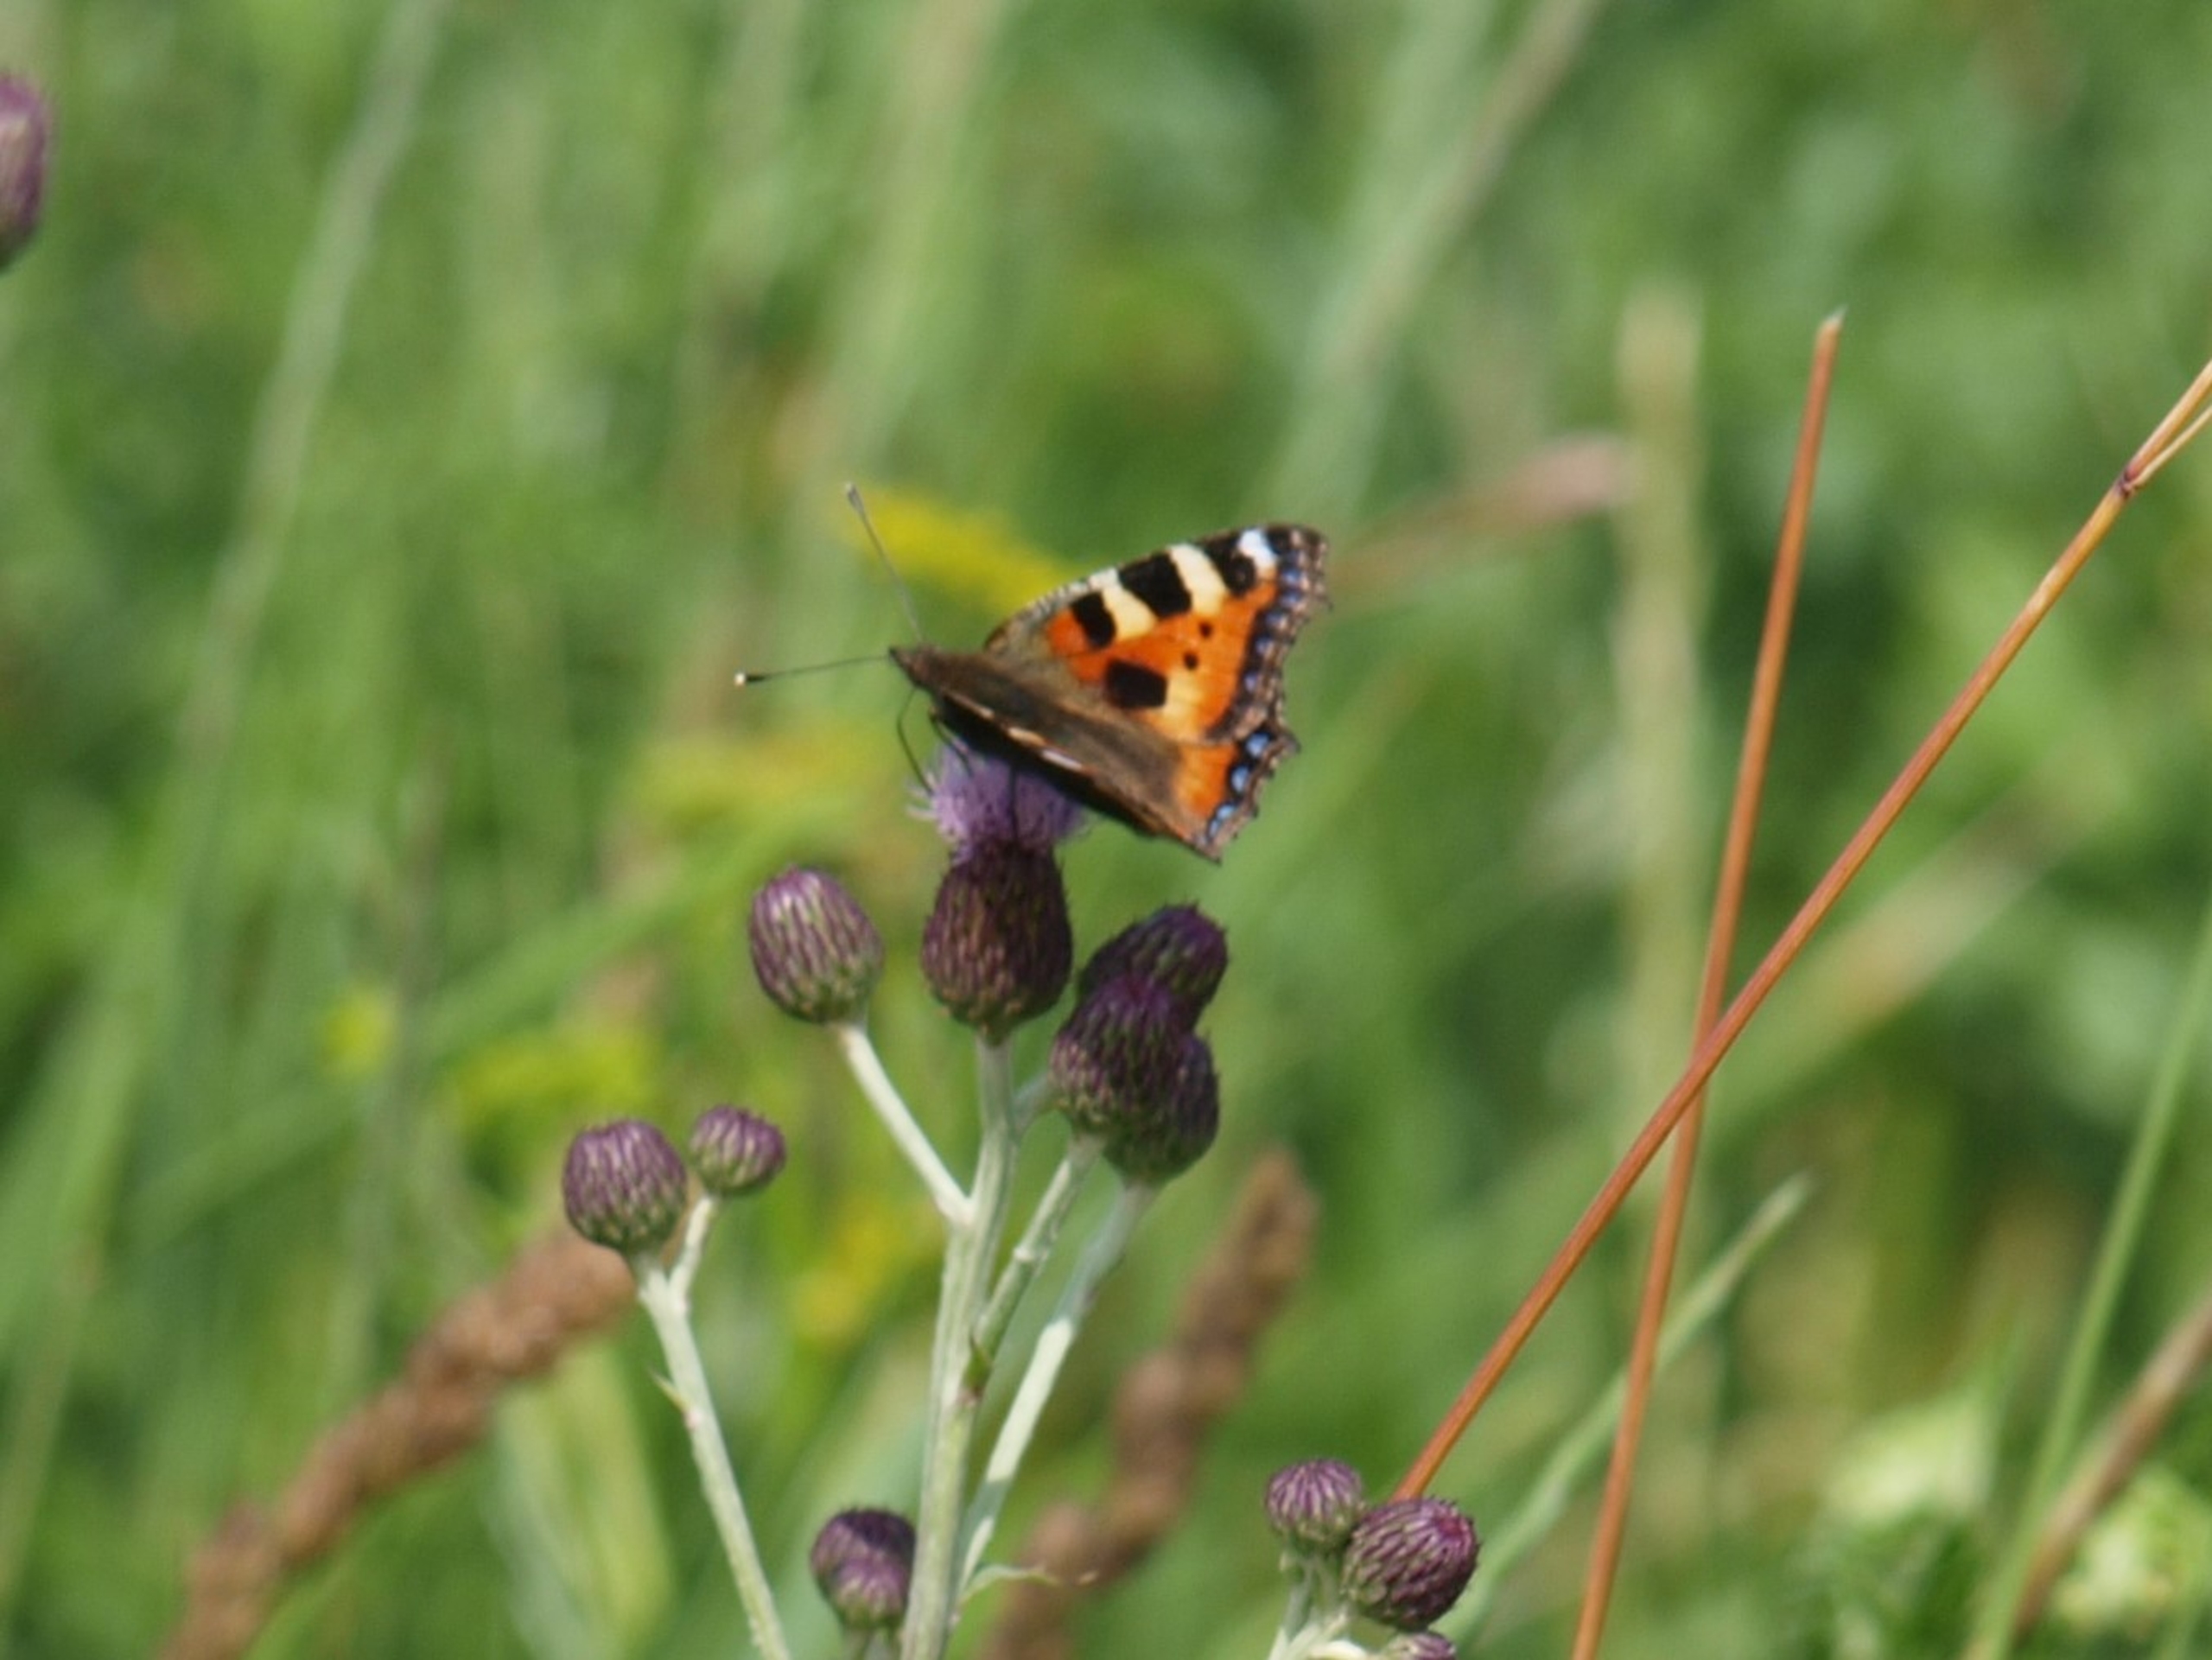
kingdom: Animalia
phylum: Arthropoda
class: Insecta
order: Lepidoptera
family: Nymphalidae
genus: Aglais
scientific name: Aglais urticae
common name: Nældens takvinge
